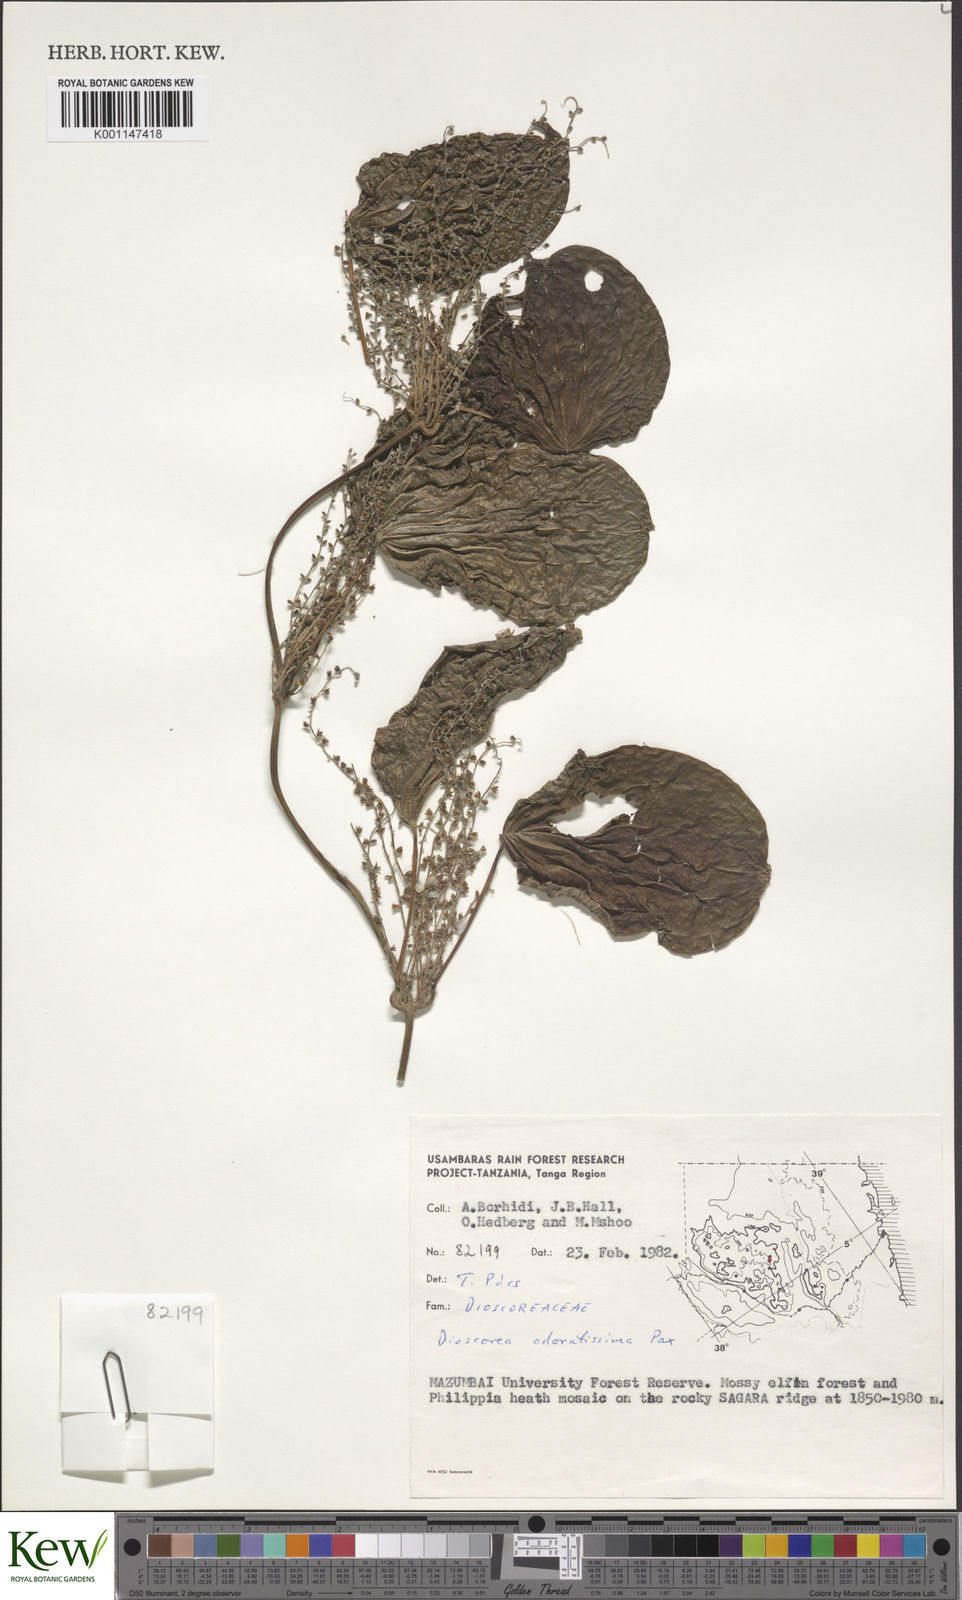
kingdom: Plantae
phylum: Tracheophyta
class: Liliopsida
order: Dioscoreales
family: Dioscoreaceae
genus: Dioscorea
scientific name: Dioscorea praehensilis
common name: Bush yam
